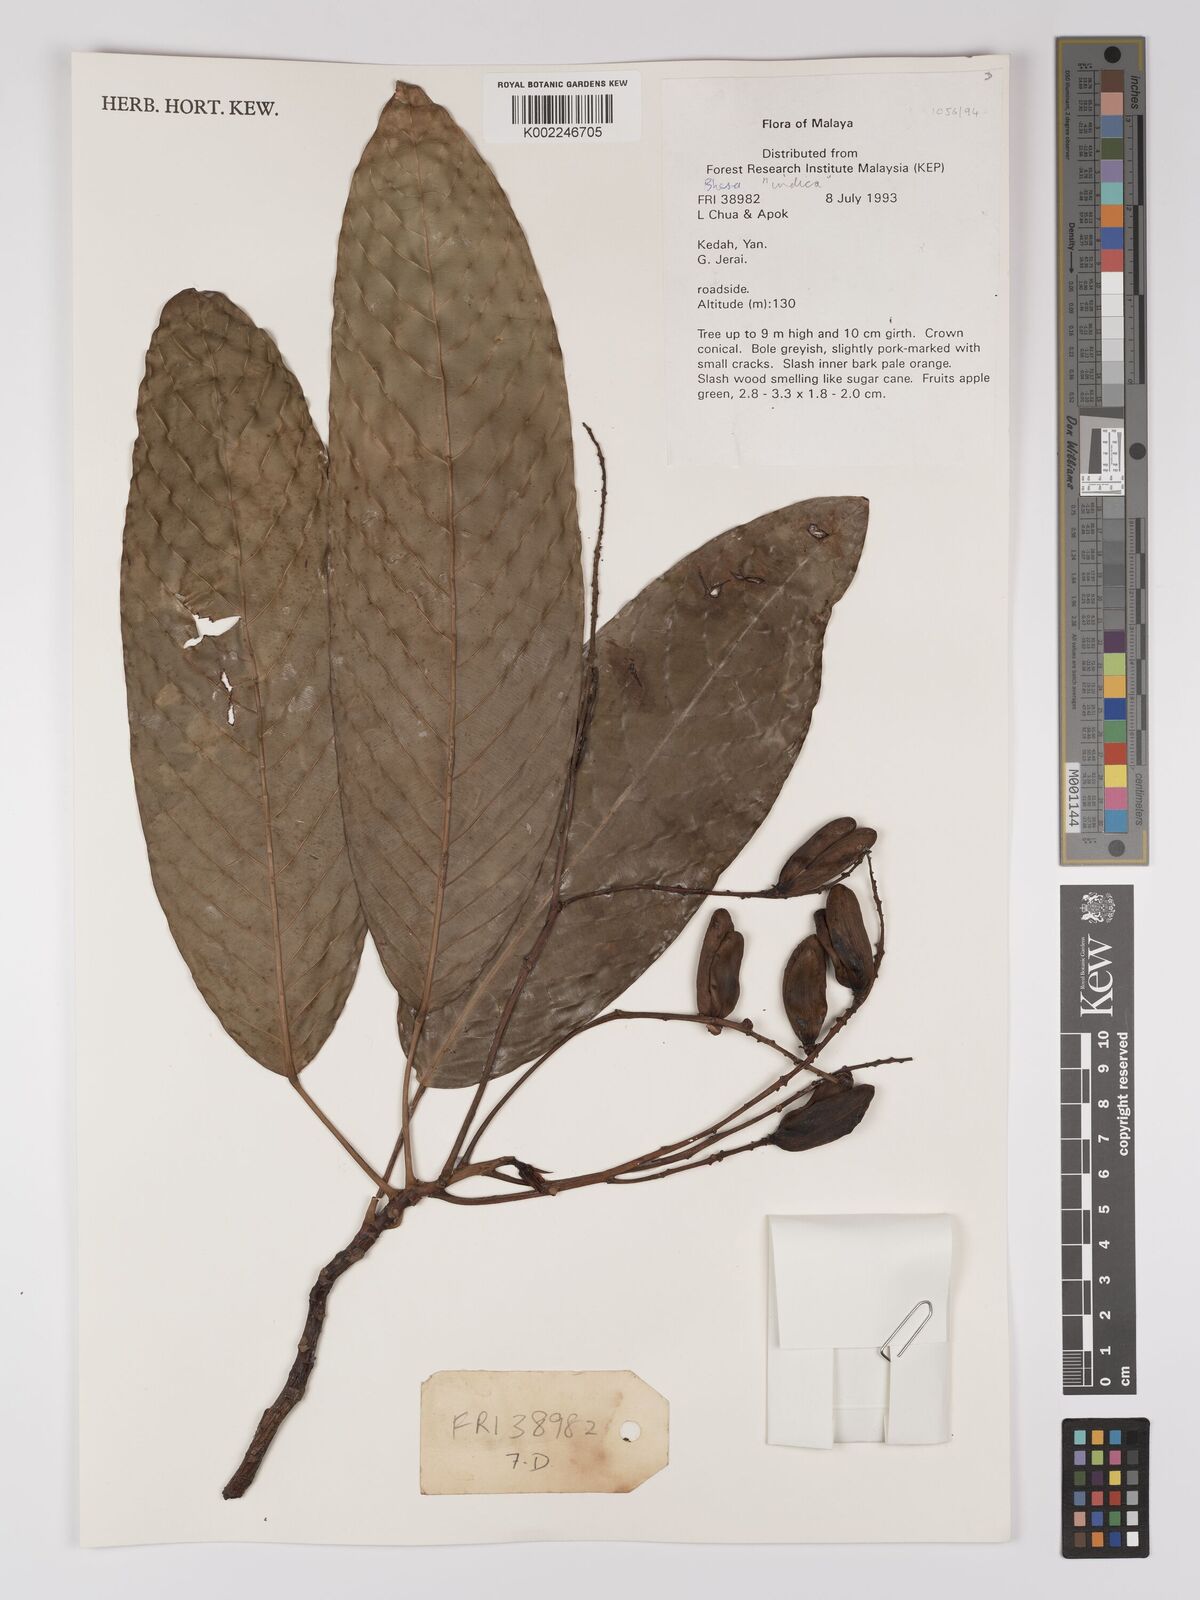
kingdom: Plantae
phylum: Tracheophyta
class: Magnoliopsida
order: Malpighiales
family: Centroplacaceae
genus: Bhesa
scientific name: Bhesa indica
